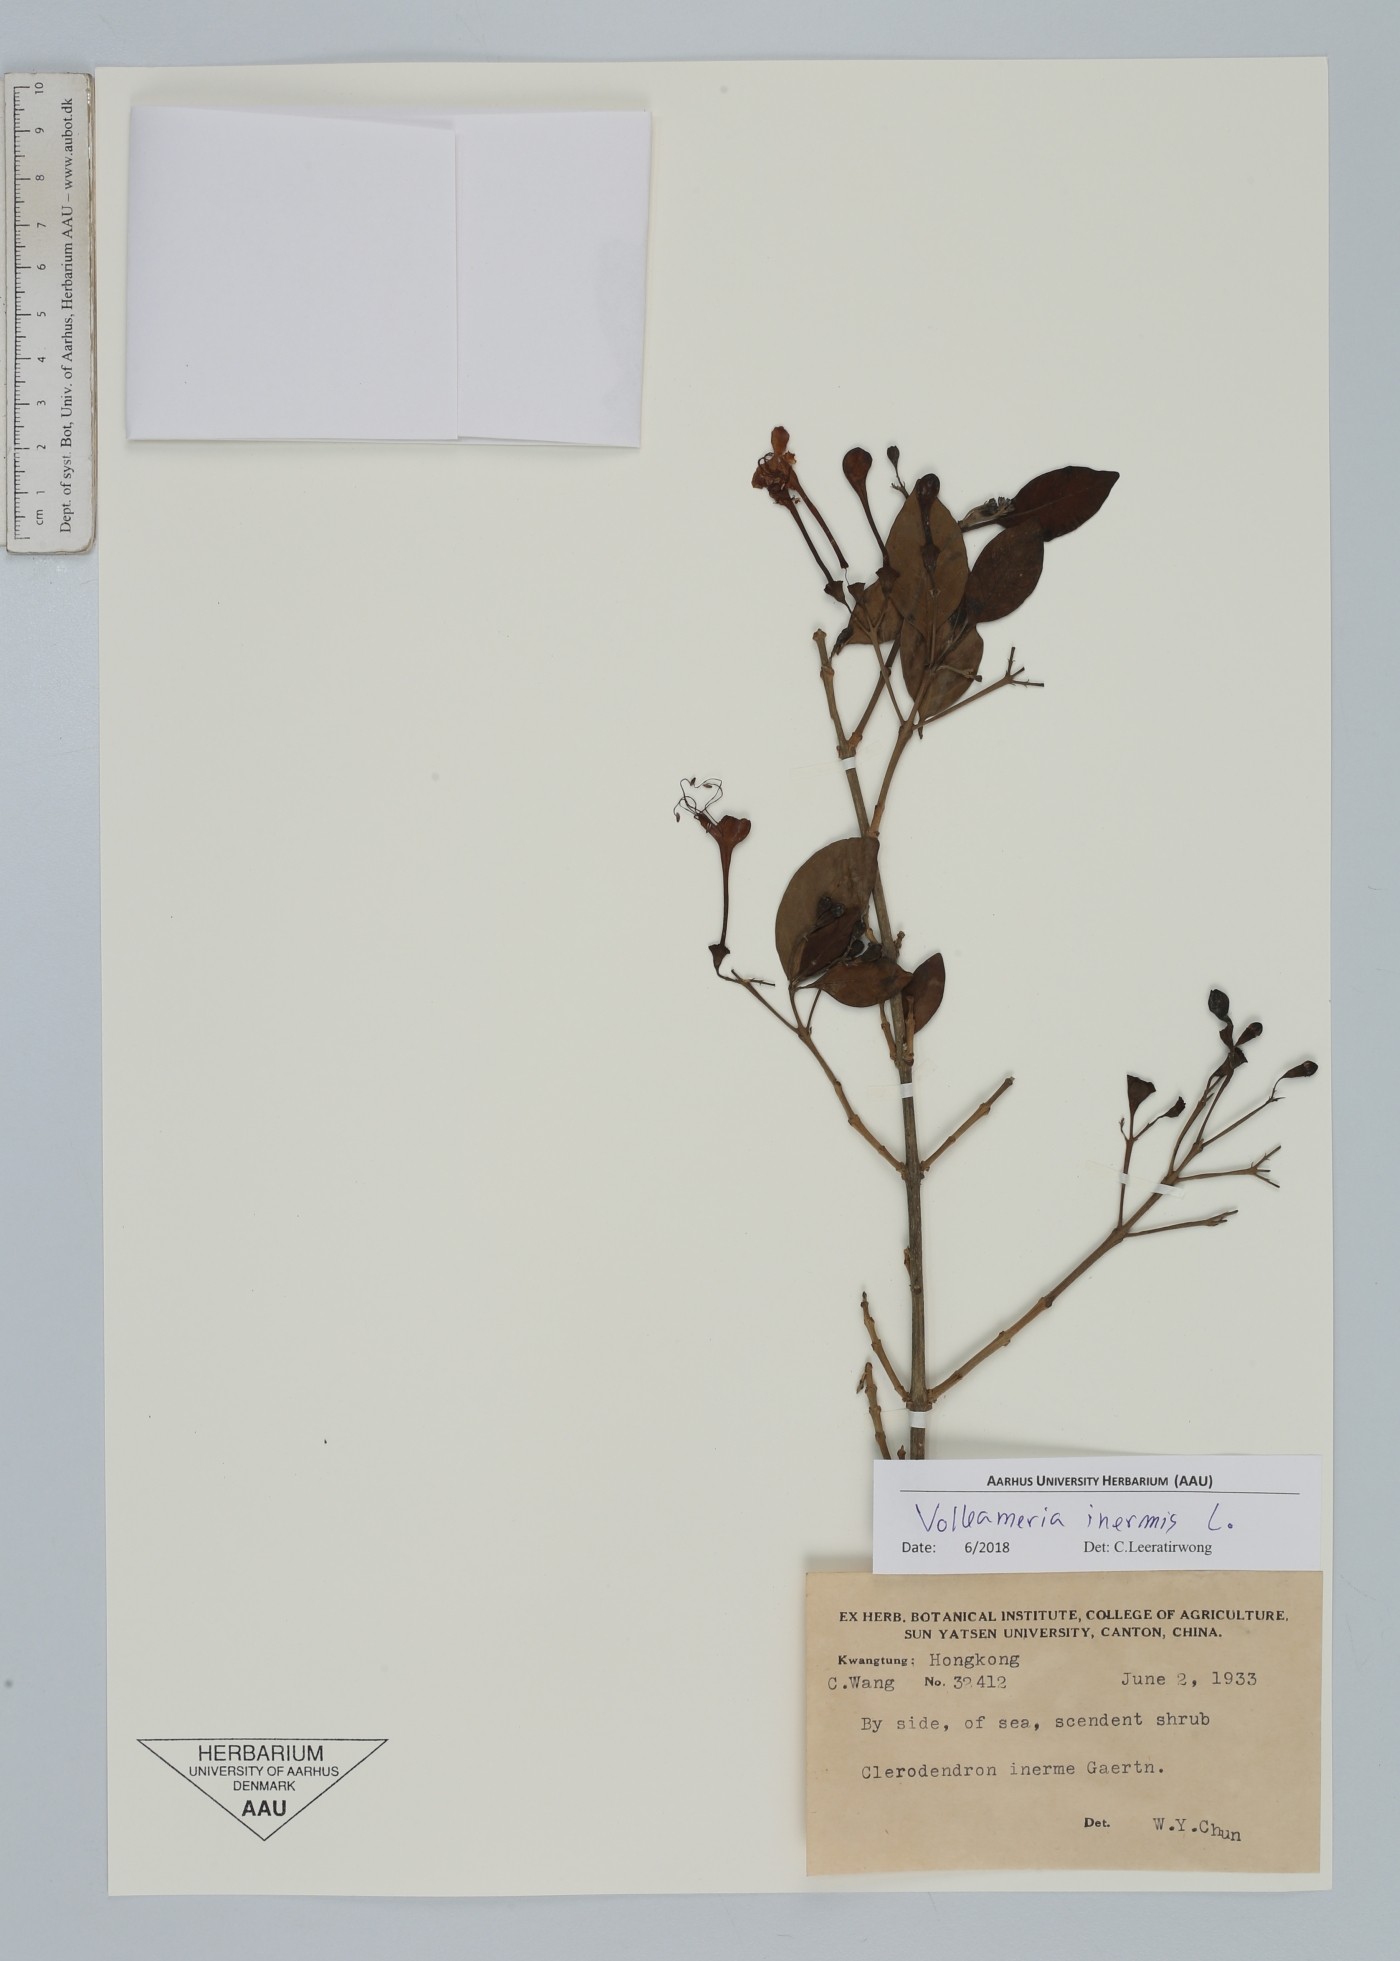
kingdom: Plantae
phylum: Tracheophyta
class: Magnoliopsida
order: Lamiales
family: Lamiaceae
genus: Volkameria
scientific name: Volkameria inermis
